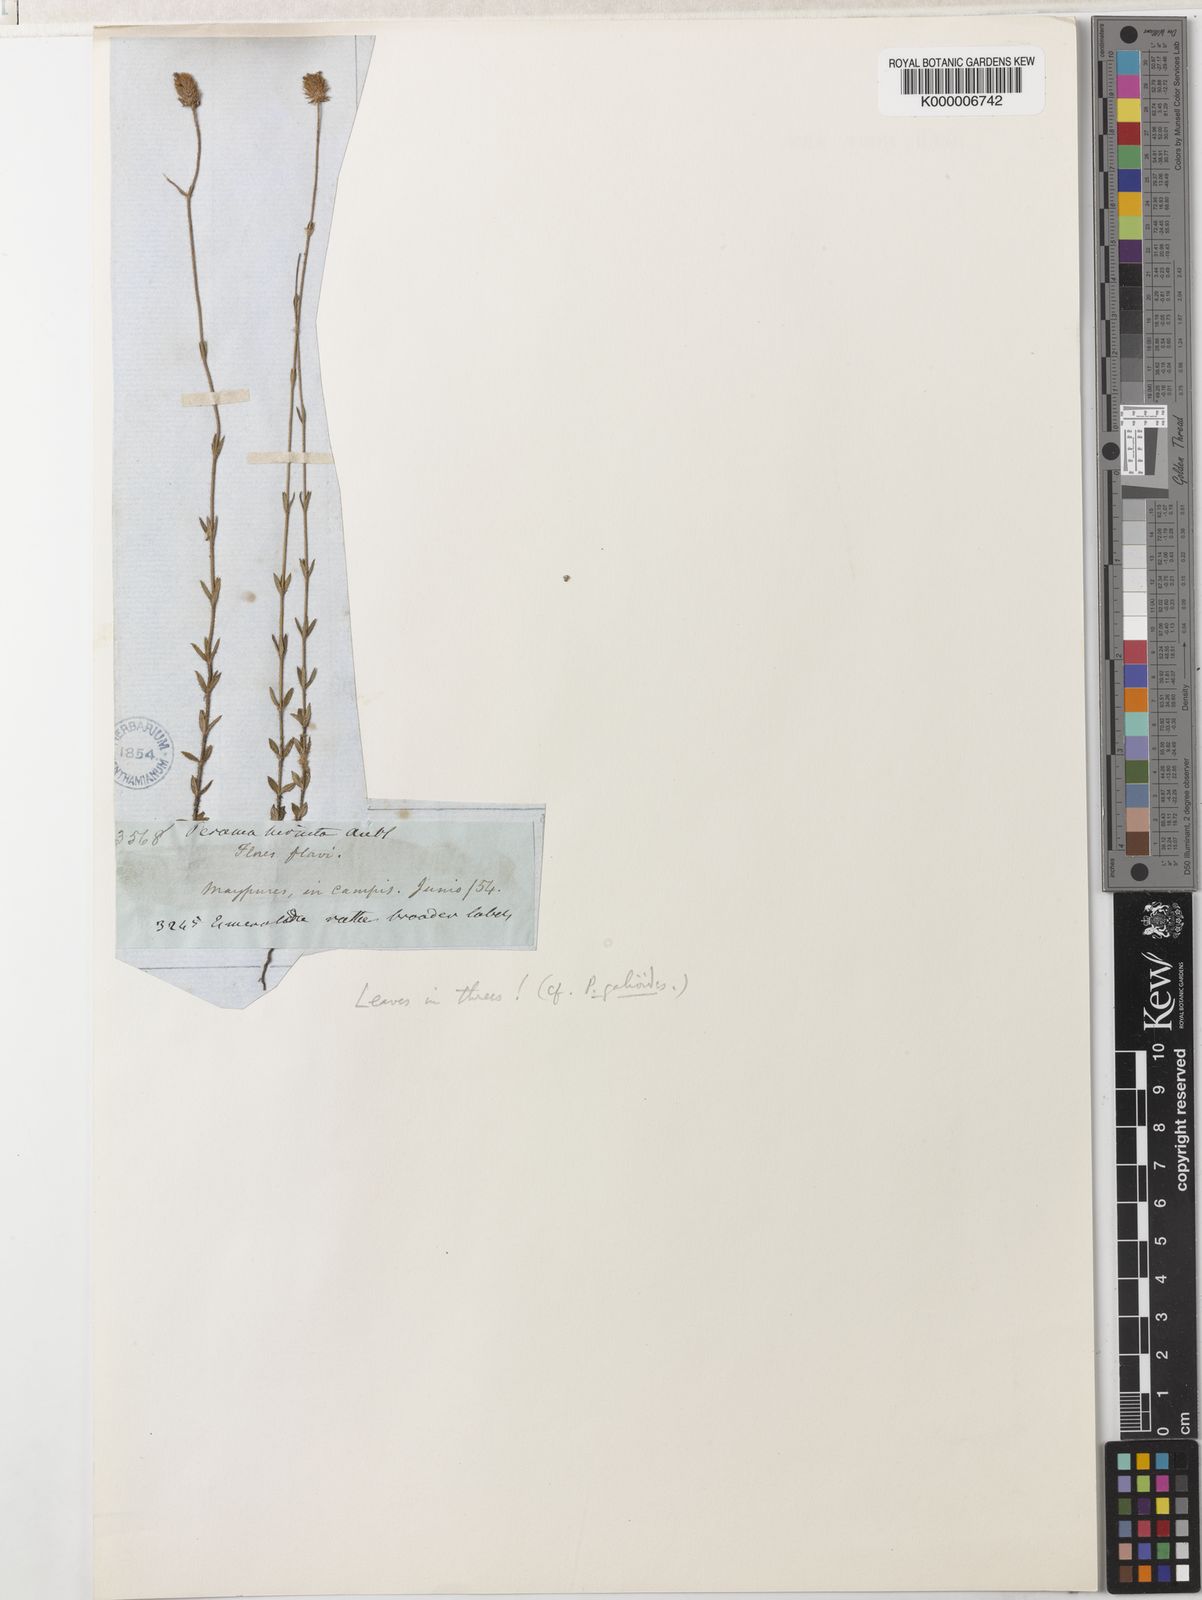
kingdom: Plantae
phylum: Tracheophyta
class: Magnoliopsida
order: Gentianales
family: Rubiaceae
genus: Perama
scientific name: Perama
